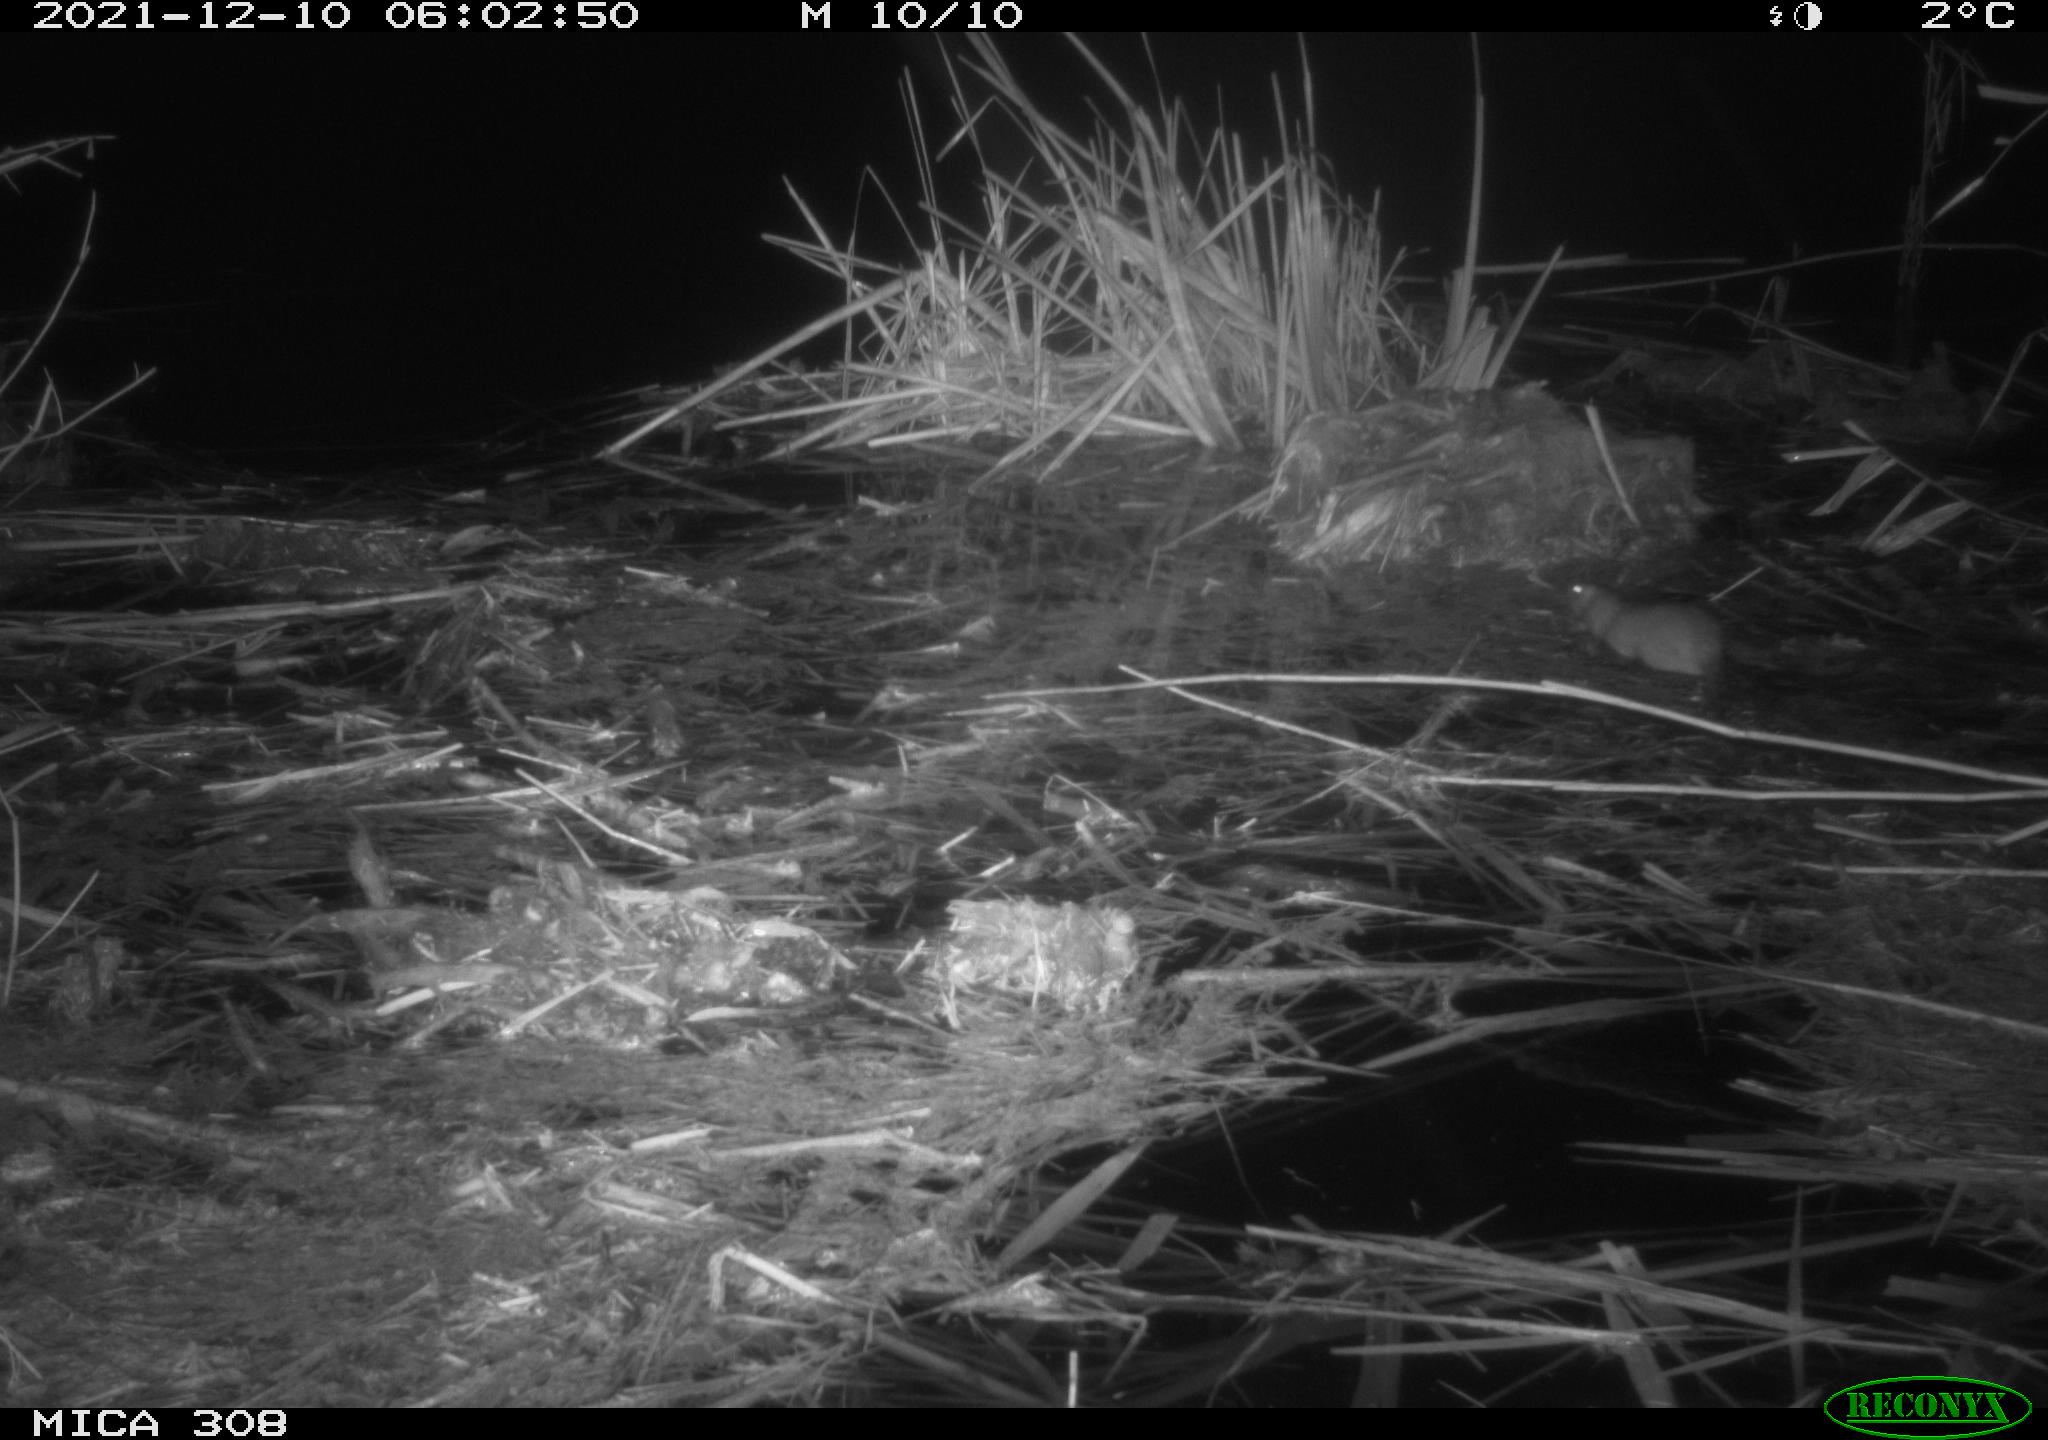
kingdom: Animalia
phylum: Chordata
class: Mammalia
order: Rodentia
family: Muridae
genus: Rattus
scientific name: Rattus norvegicus
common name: Brown rat
